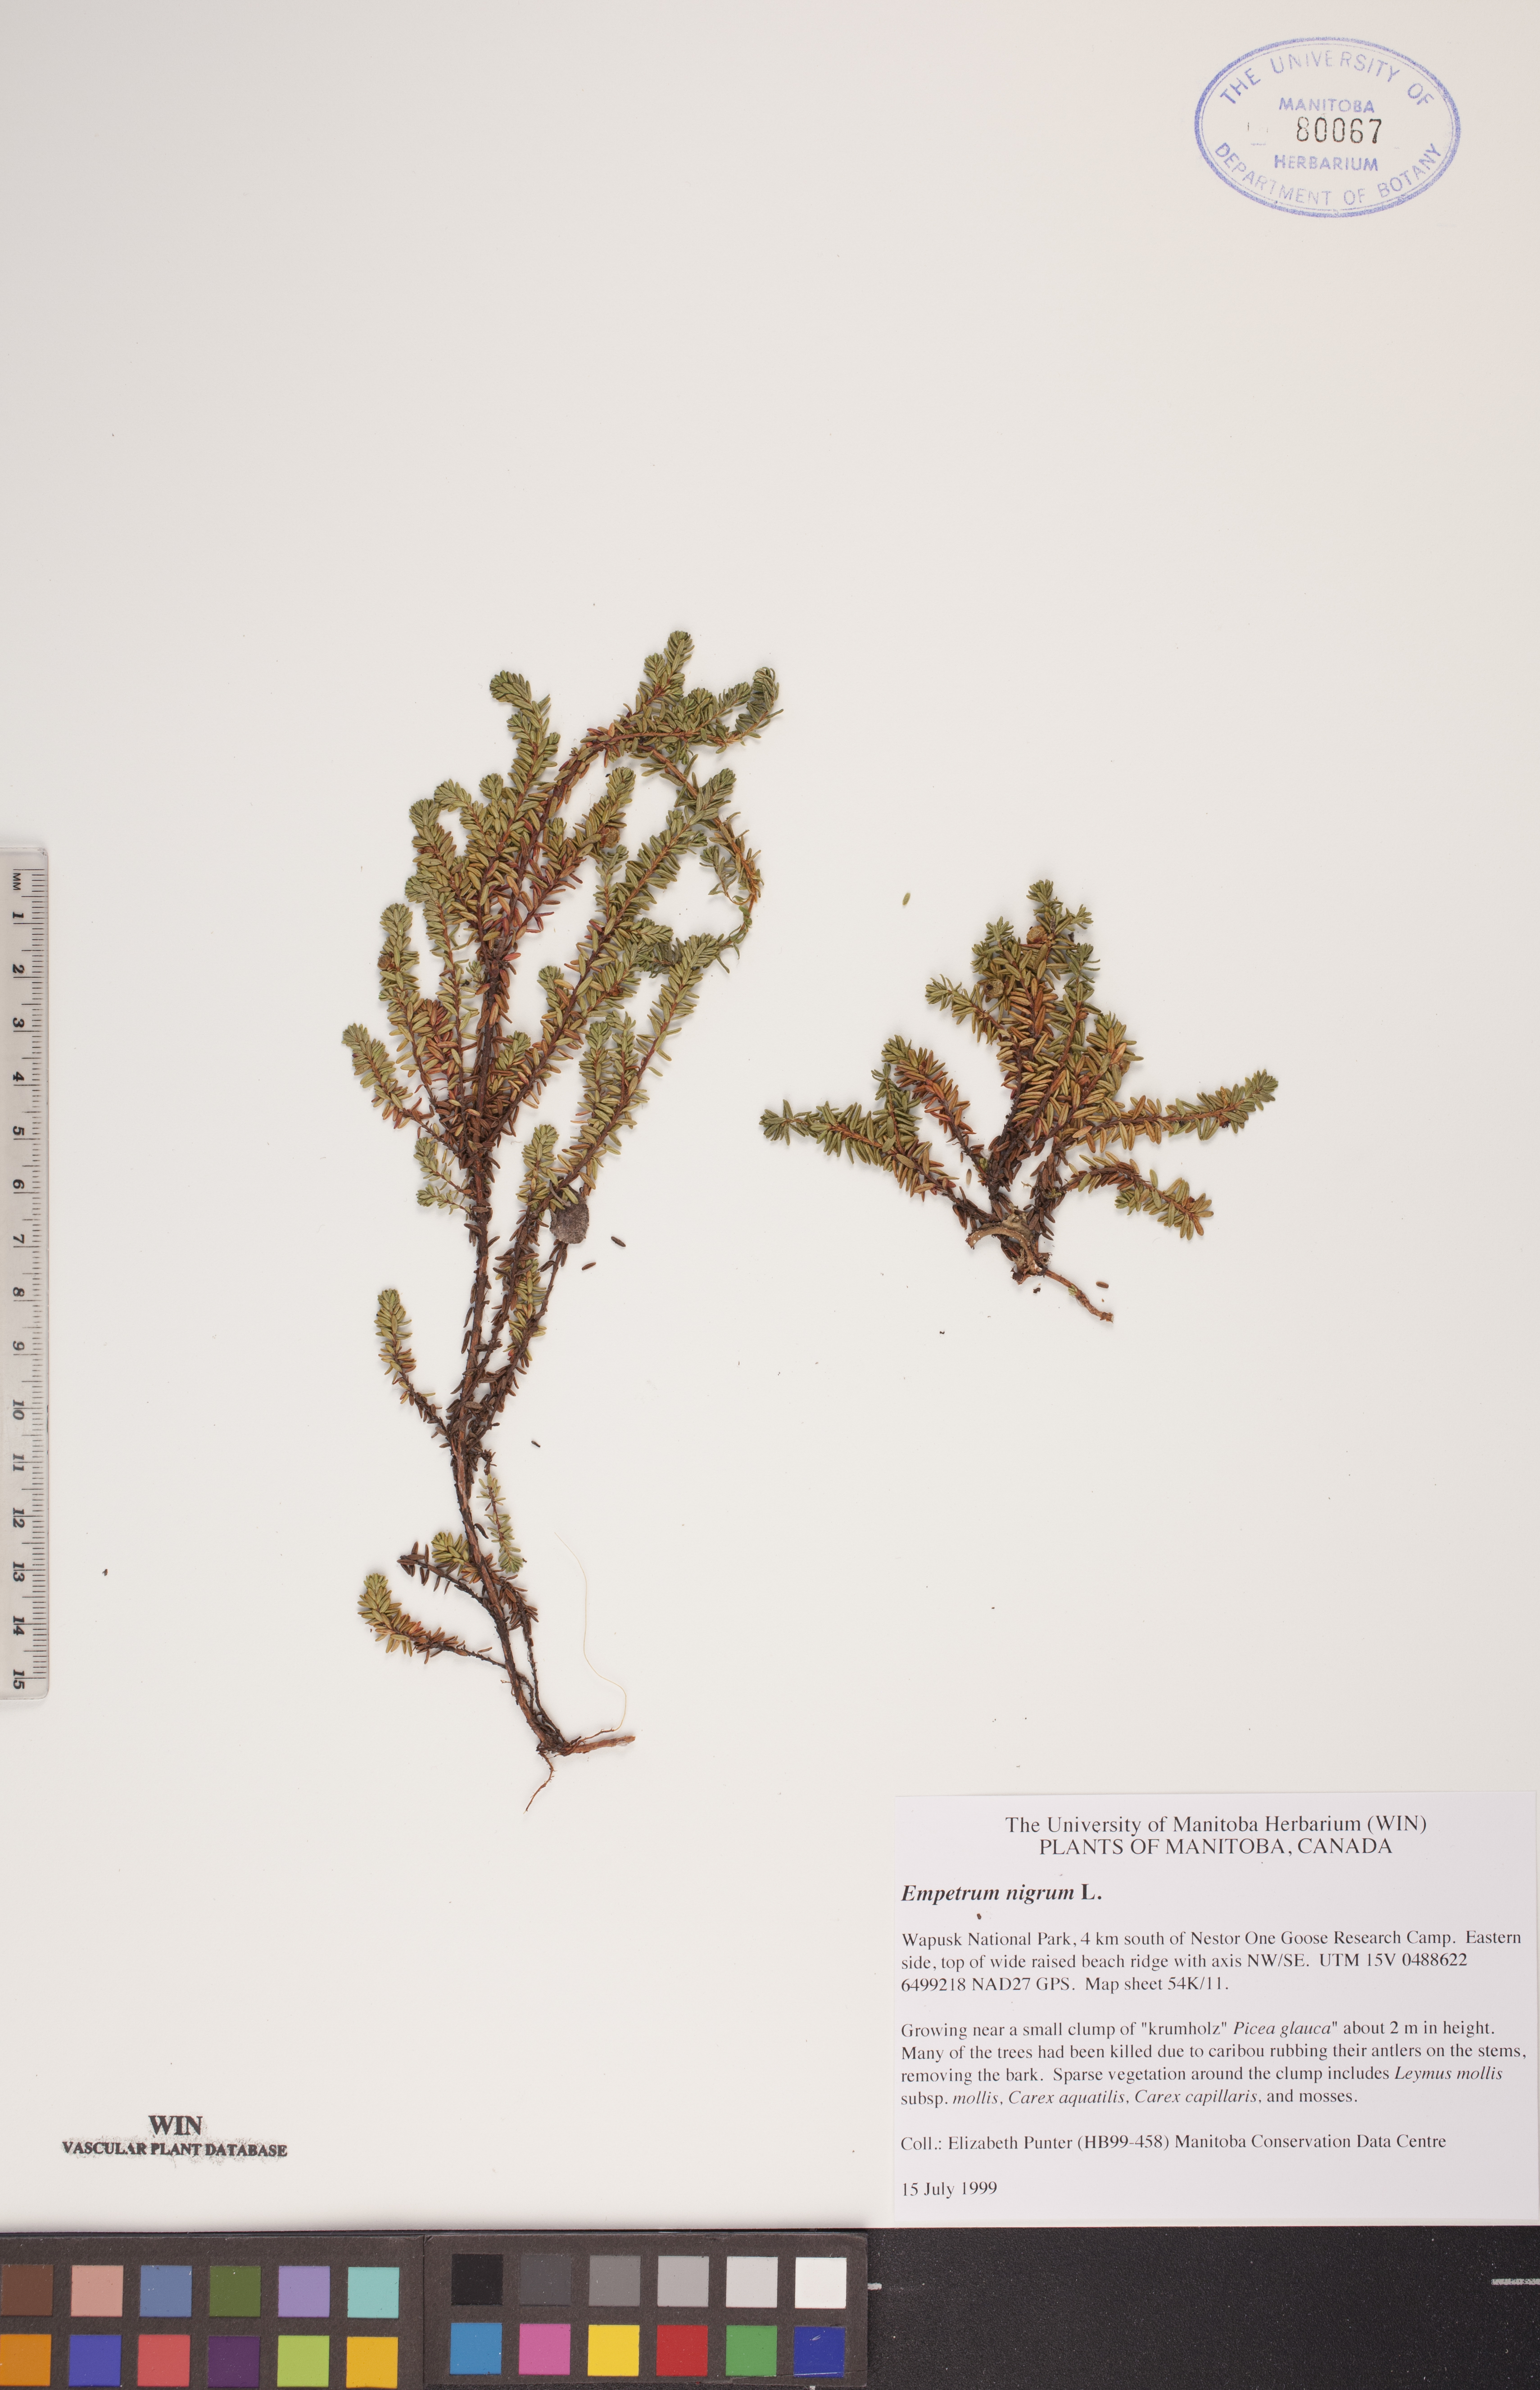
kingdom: Plantae
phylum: Tracheophyta
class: Magnoliopsida
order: Ericales
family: Ericaceae
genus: Empetrum
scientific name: Empetrum nigrum
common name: Black crowberry
